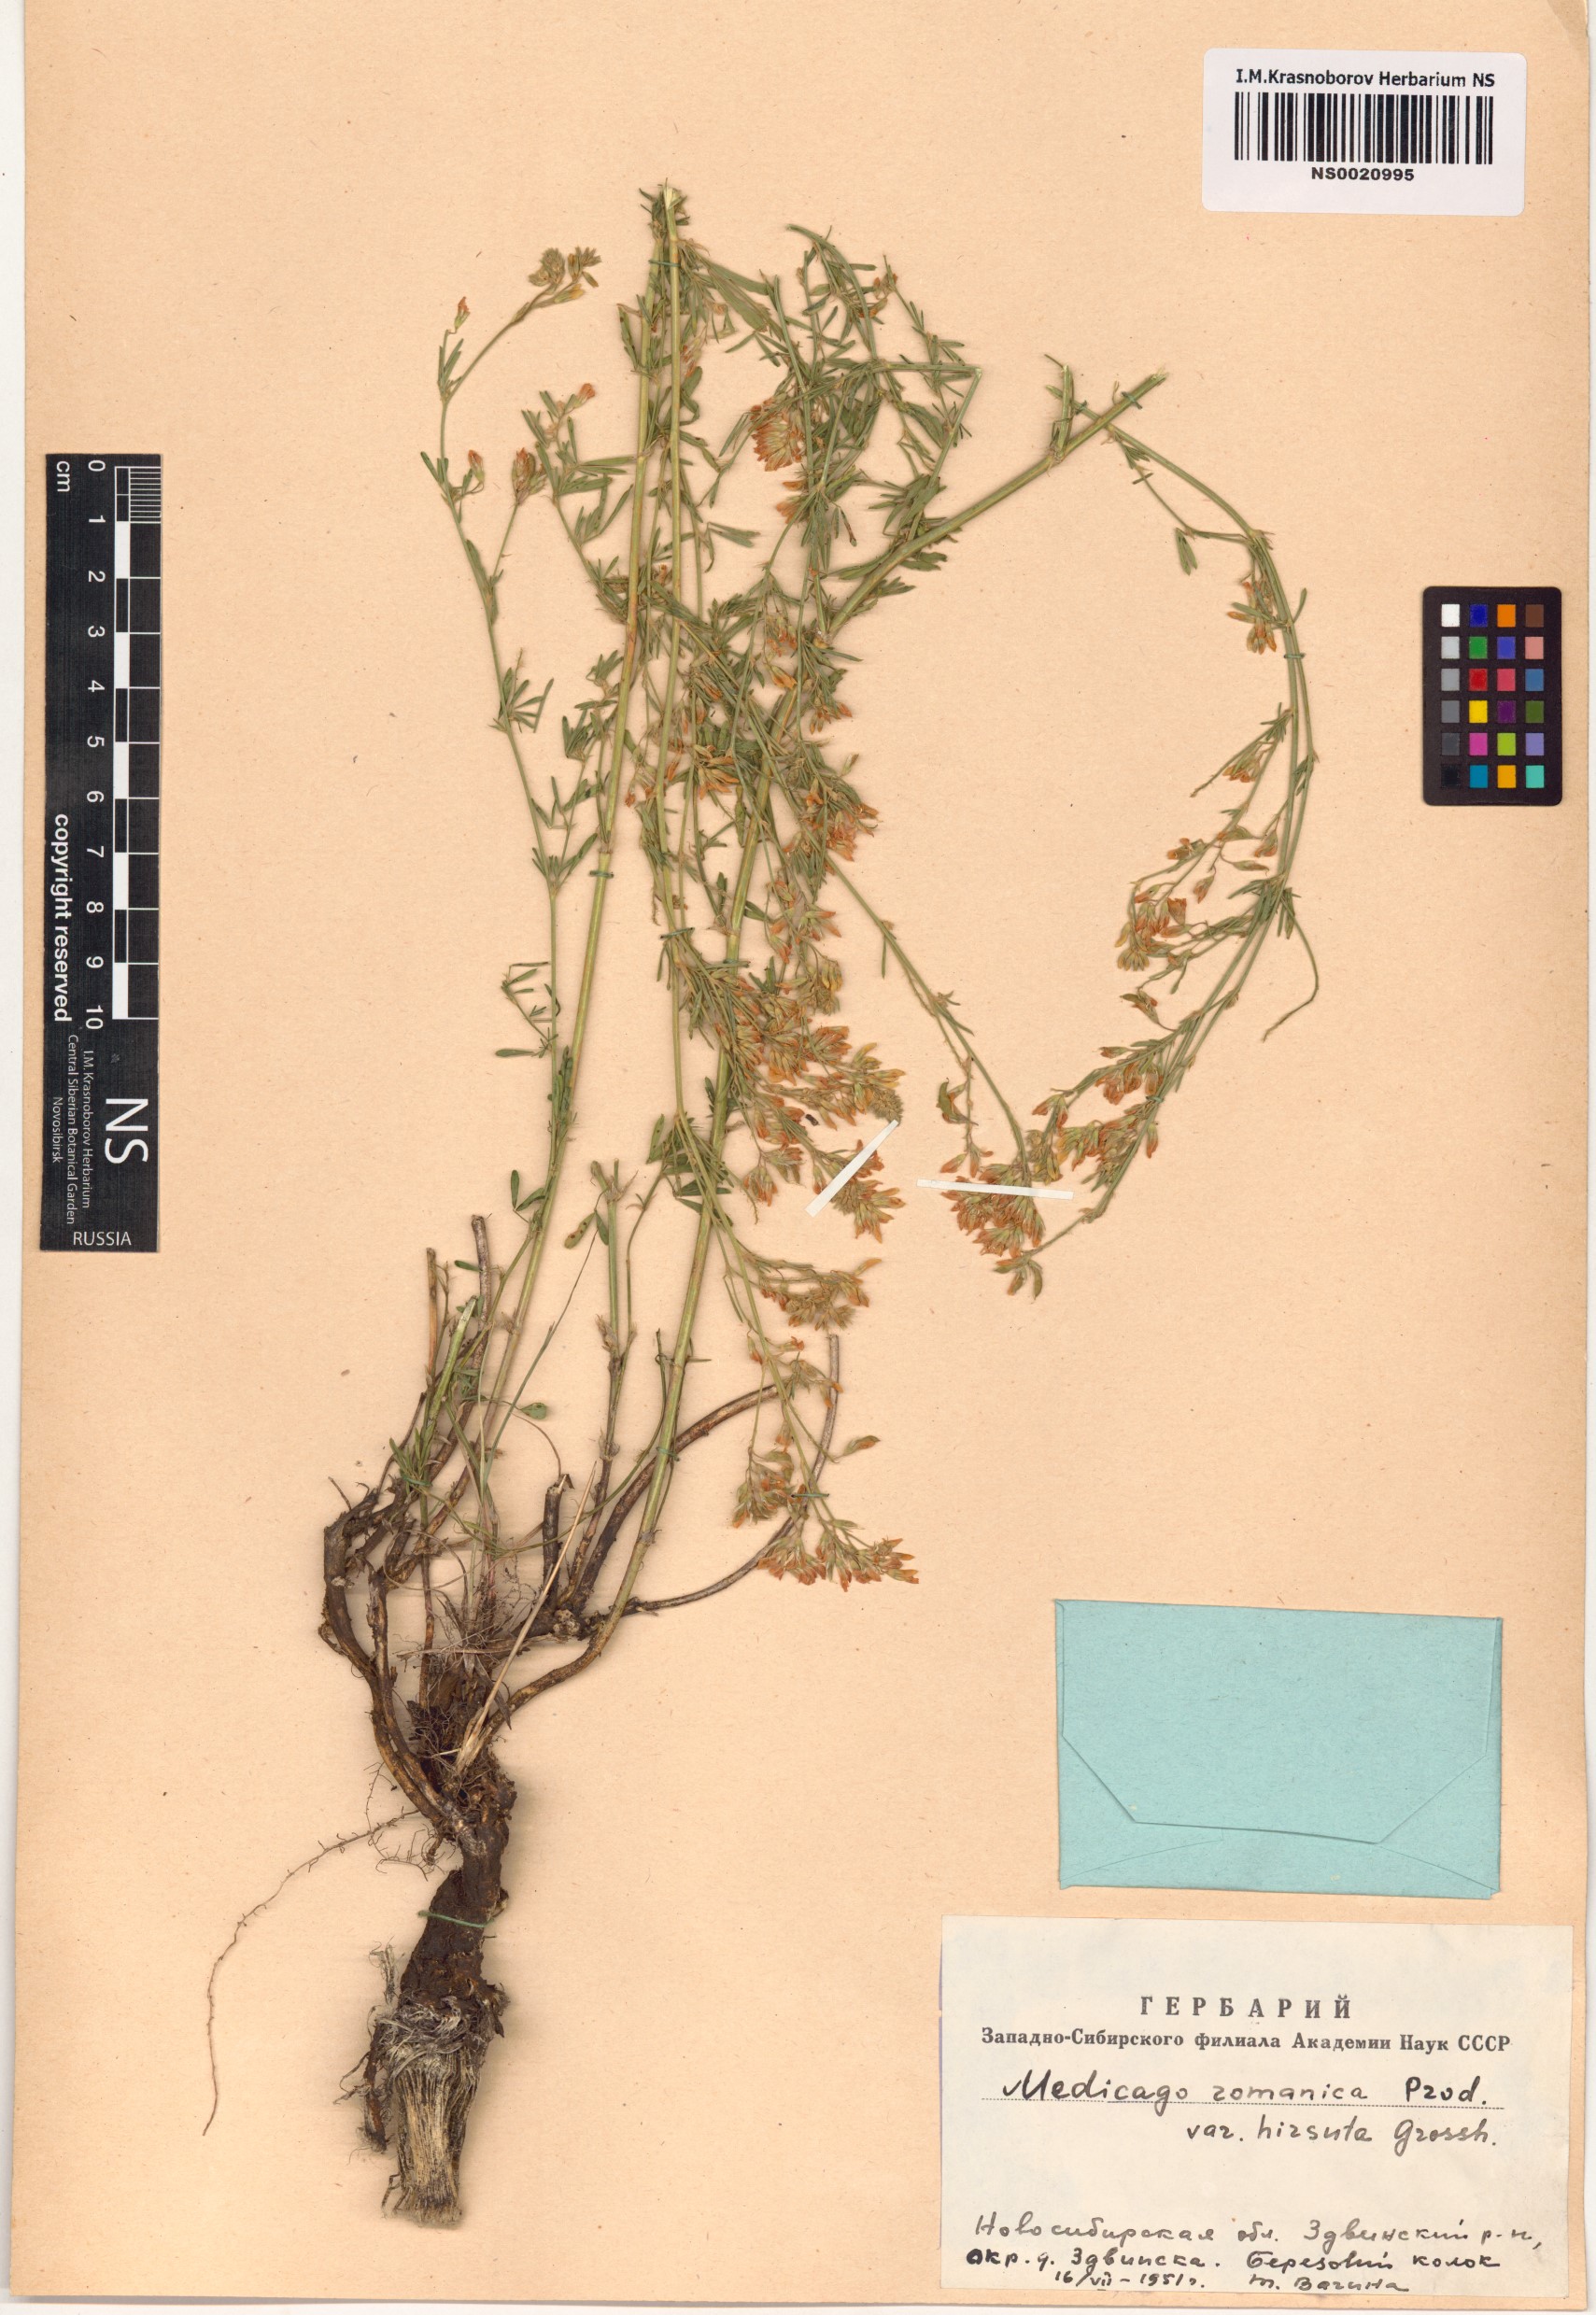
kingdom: Plantae
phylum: Tracheophyta
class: Magnoliopsida
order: Fabales
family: Fabaceae
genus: Medicago
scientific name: Medicago falcata
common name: Sickle medick
